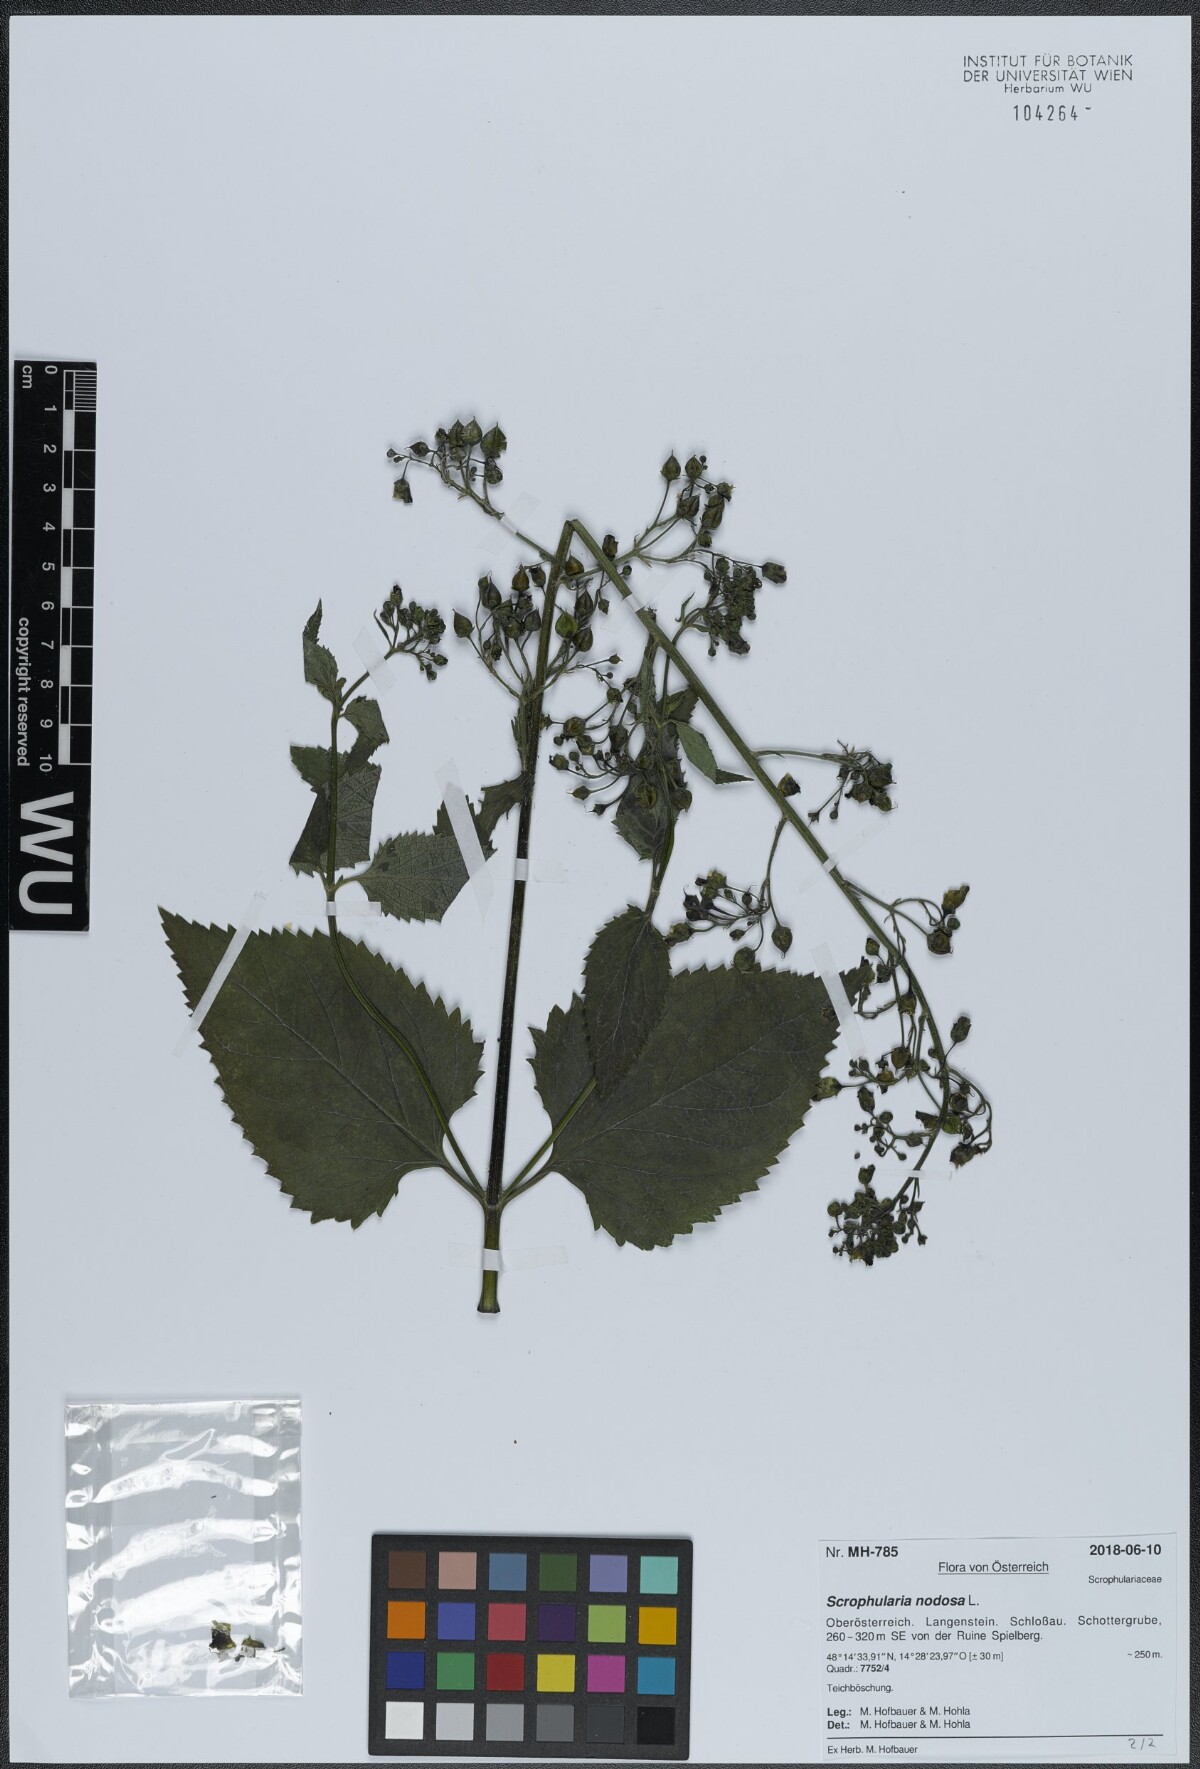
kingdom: Plantae
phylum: Tracheophyta
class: Magnoliopsida
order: Lamiales
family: Scrophulariaceae
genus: Scrophularia
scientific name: Scrophularia nodosa
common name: Common figwort
